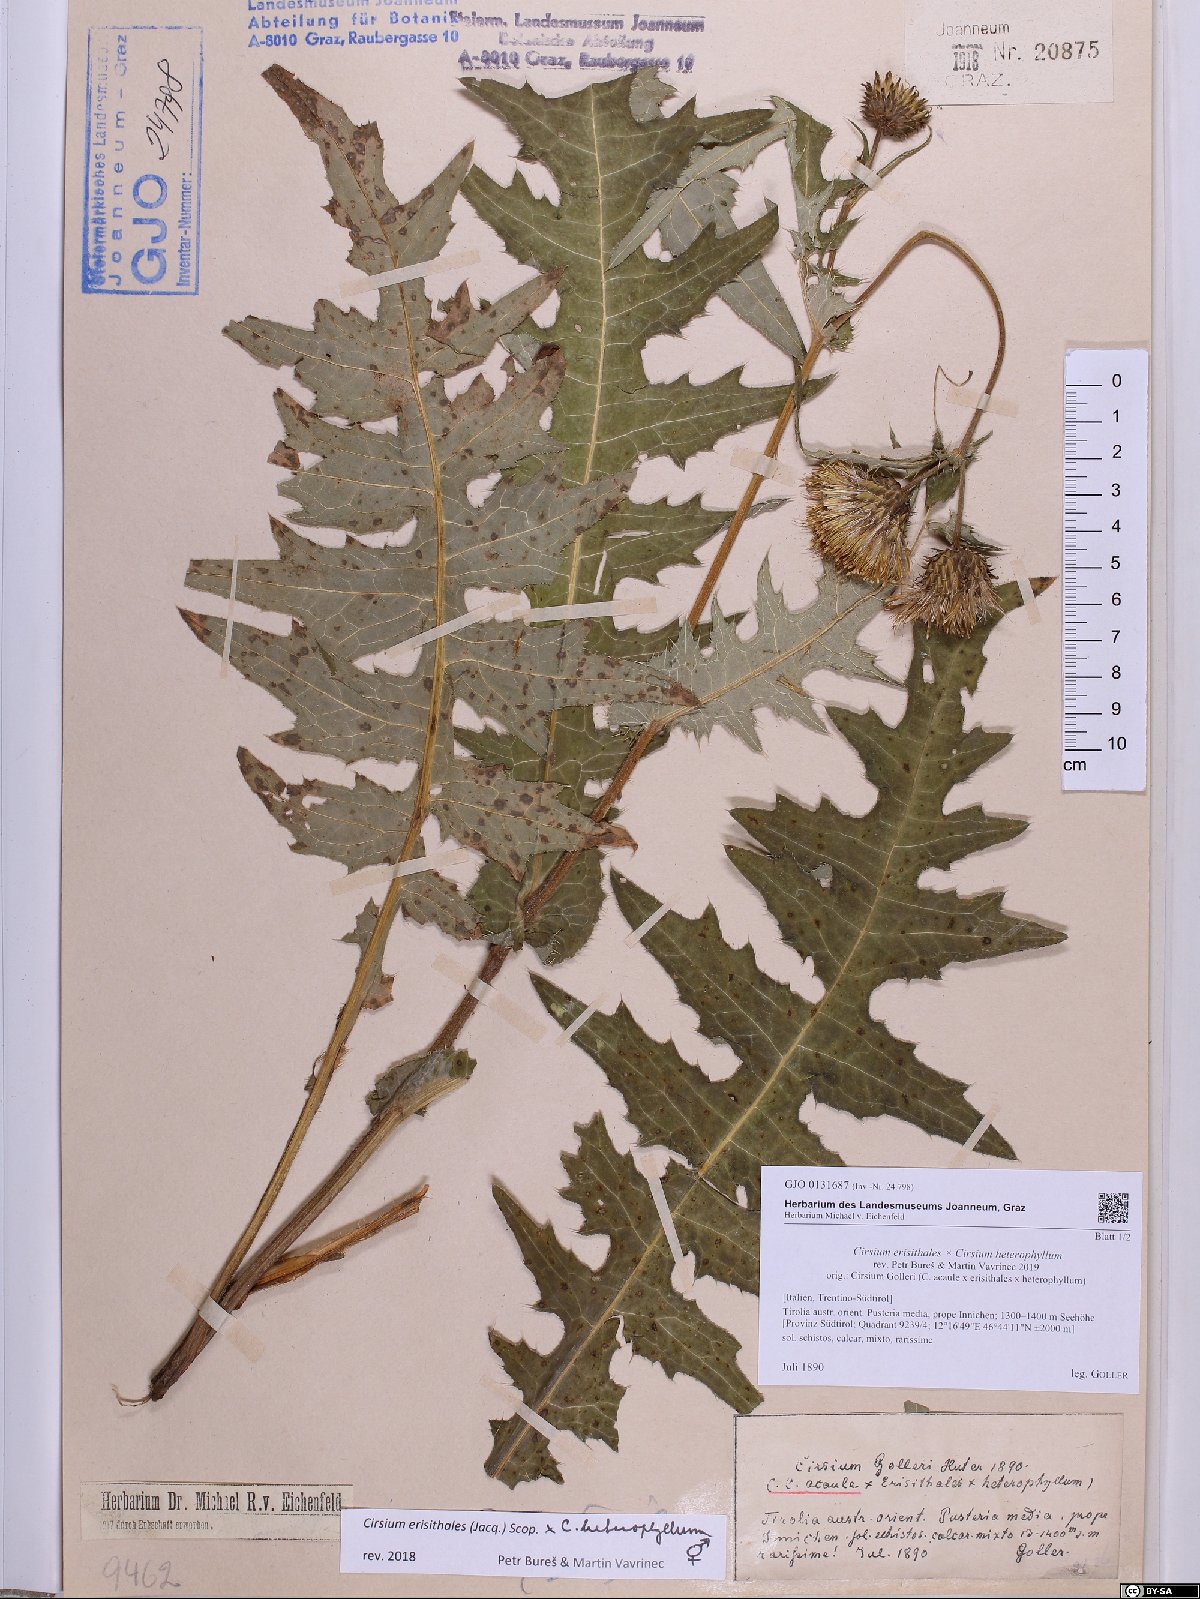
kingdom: Plantae
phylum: Tracheophyta
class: Magnoliopsida
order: Asterales
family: Asteraceae
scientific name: Asteraceae
